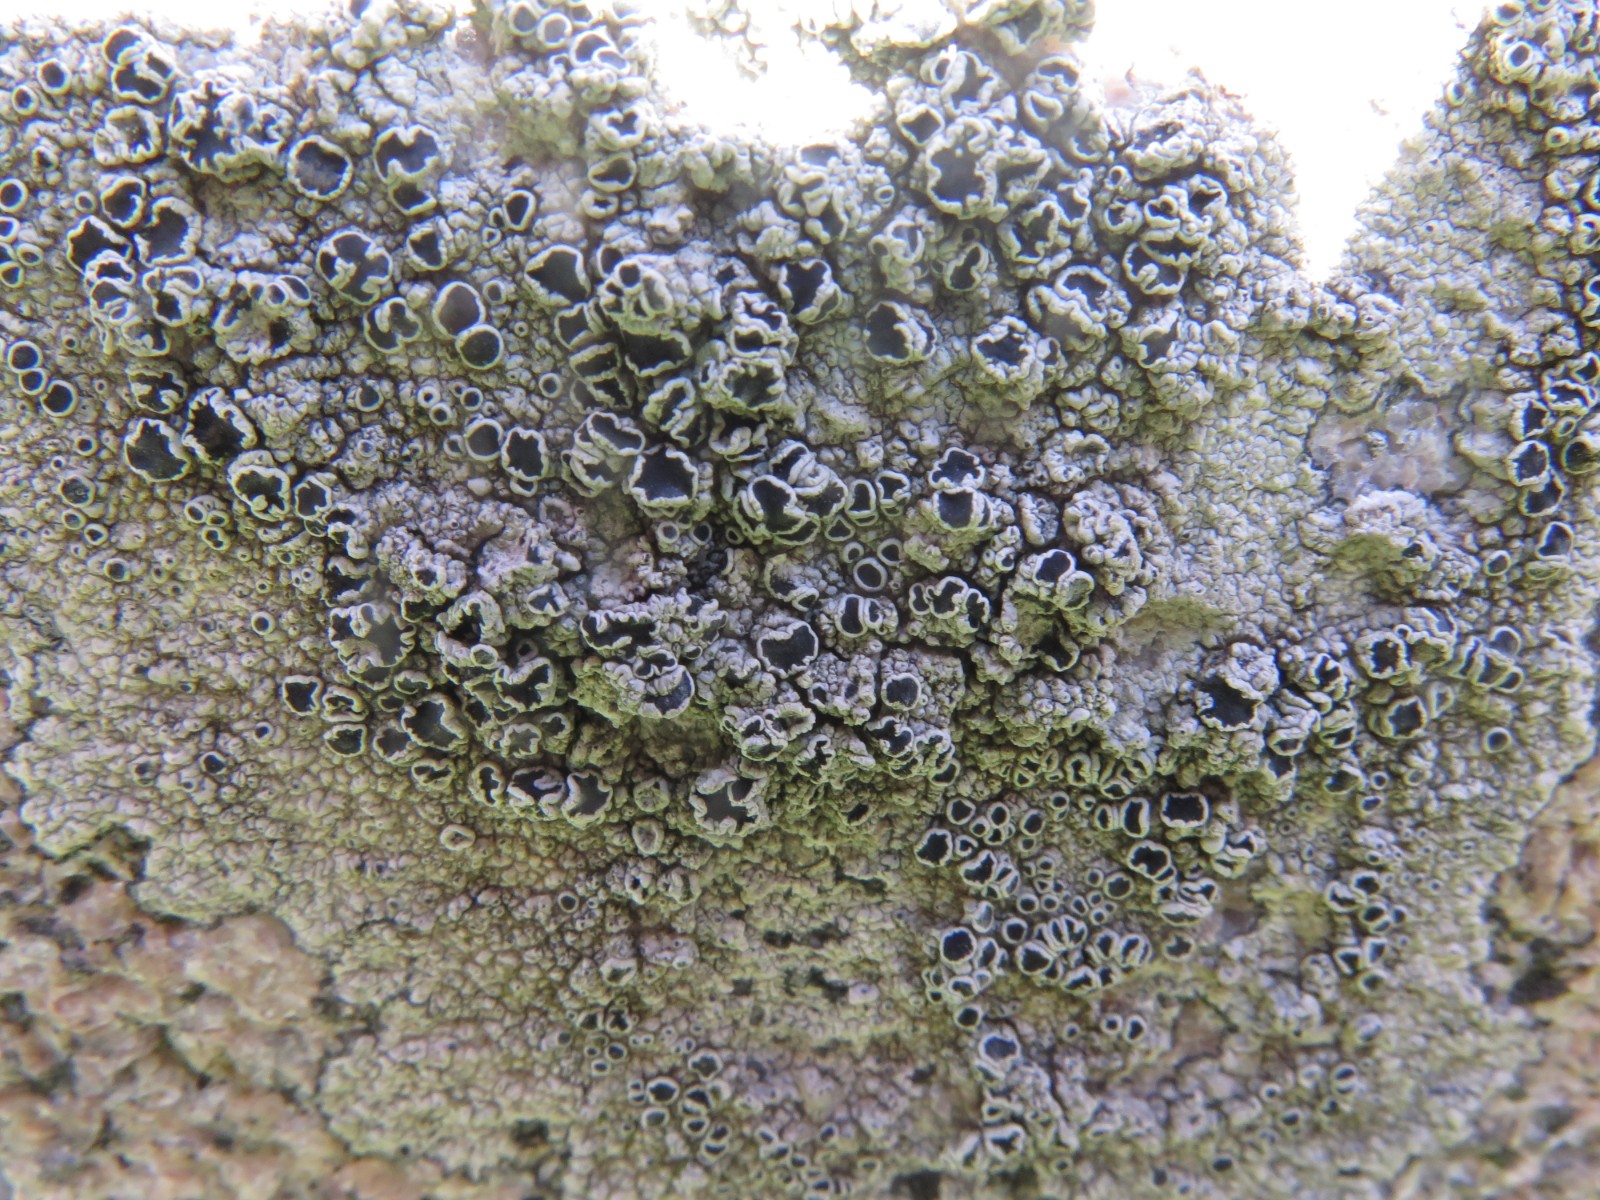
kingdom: Fungi
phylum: Ascomycota
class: Lecanoromycetes
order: Lecanorales
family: Tephromelataceae
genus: Tephromela
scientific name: Tephromela atra
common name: sortfrugtet kantskivelav
